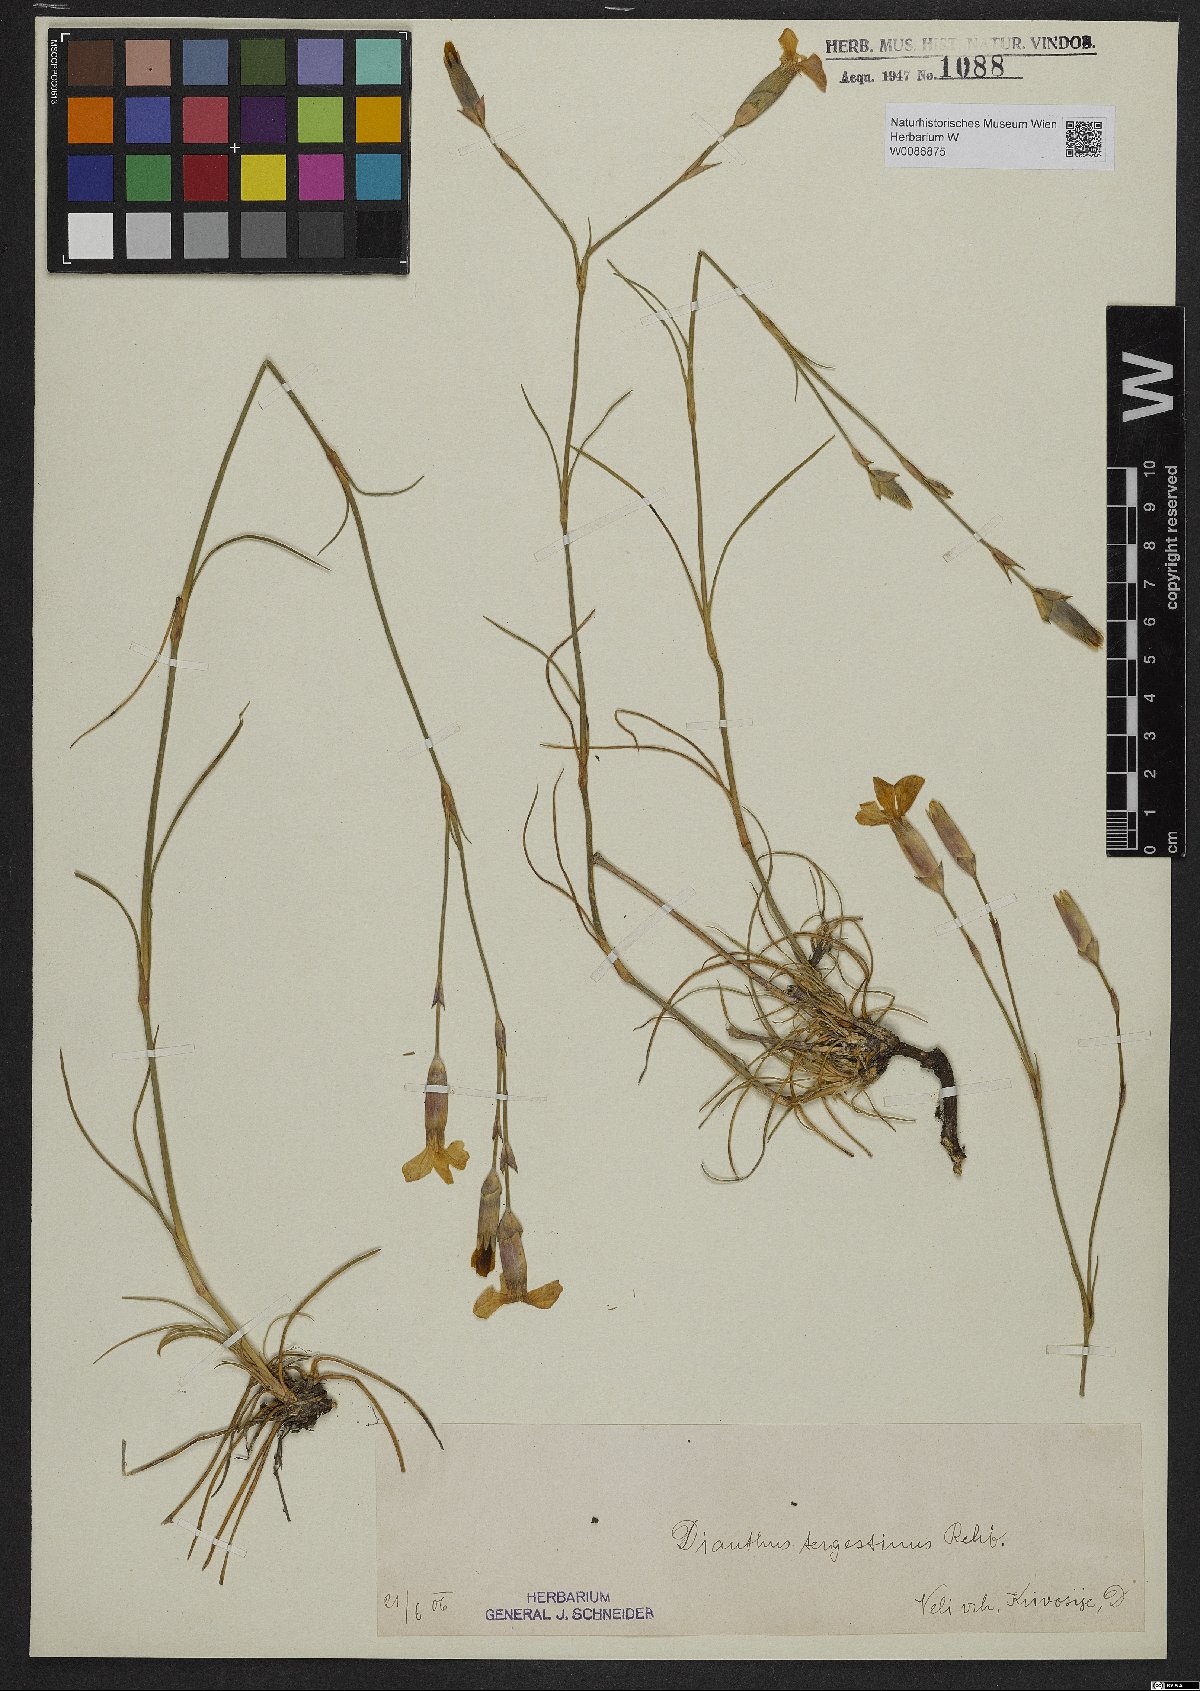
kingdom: Plantae
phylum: Tracheophyta
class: Magnoliopsida
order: Caryophyllales
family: Caryophyllaceae
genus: Dianthus
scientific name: Dianthus sylvestris
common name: Wood pink
